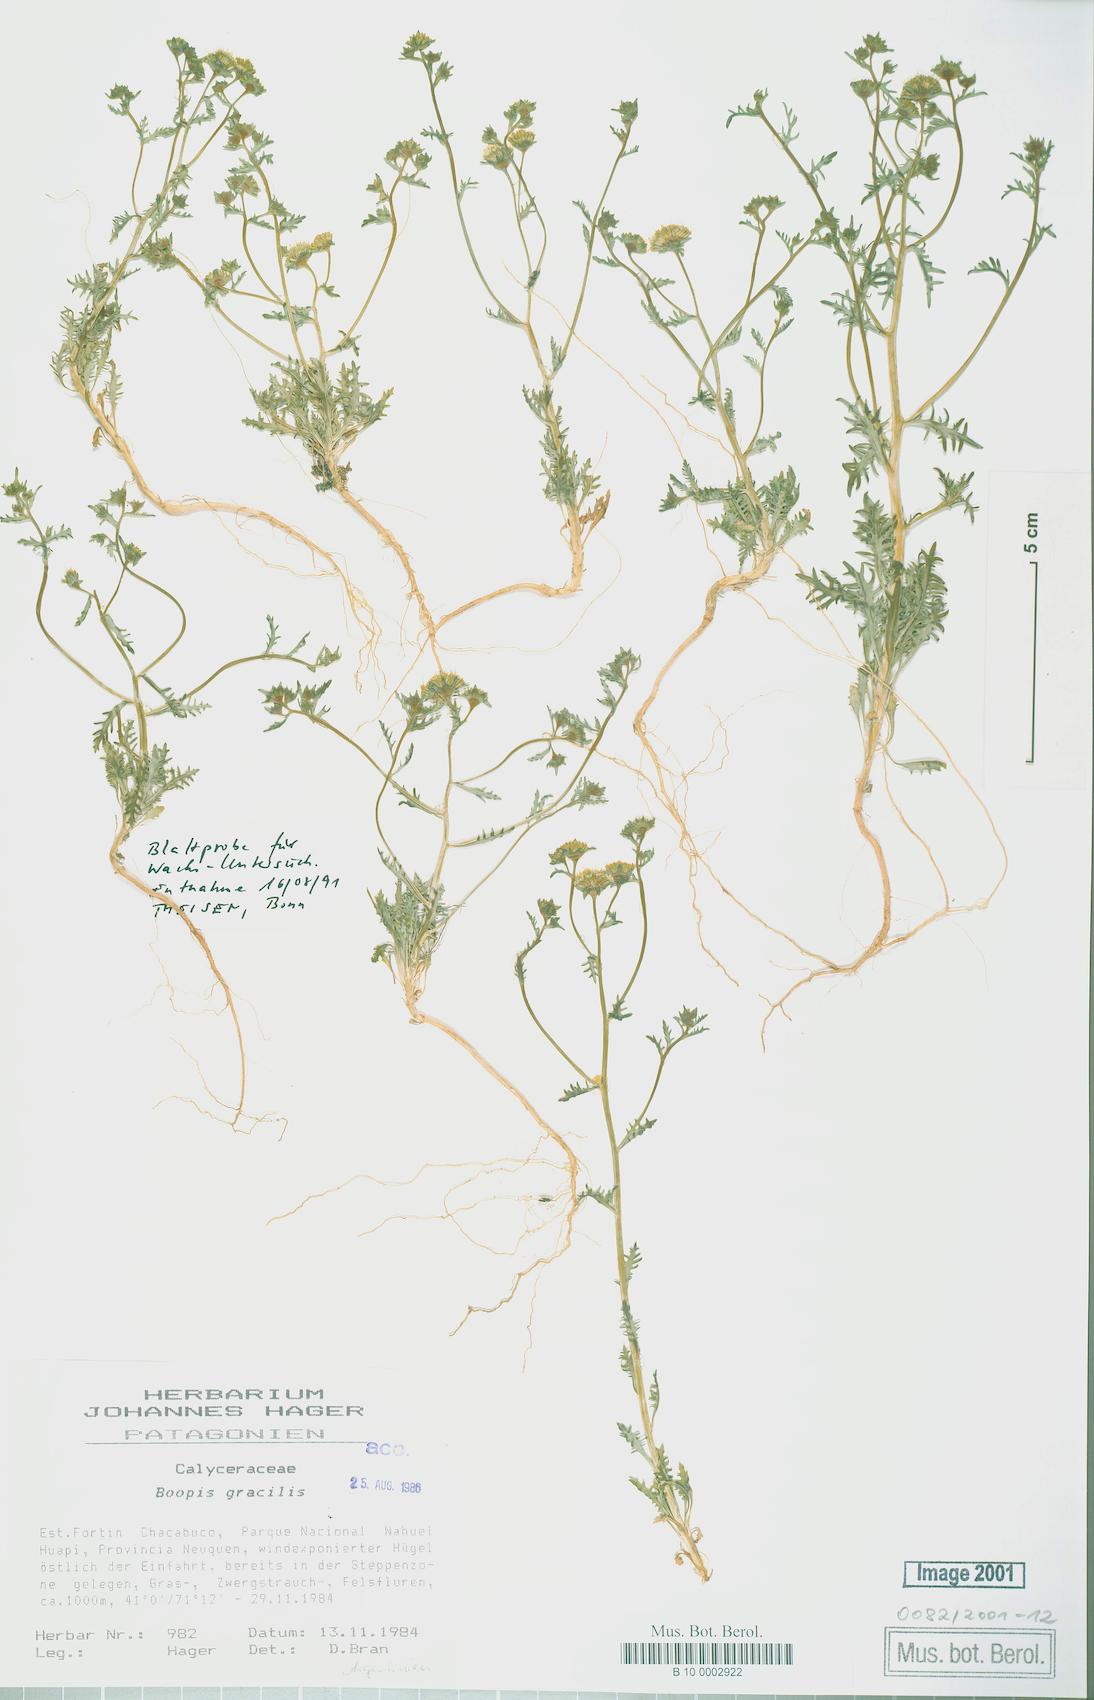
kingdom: Plantae
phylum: Tracheophyta
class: Magnoliopsida
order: Asterales
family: Calyceraceae
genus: Asynthema
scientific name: Asynthema gracile
